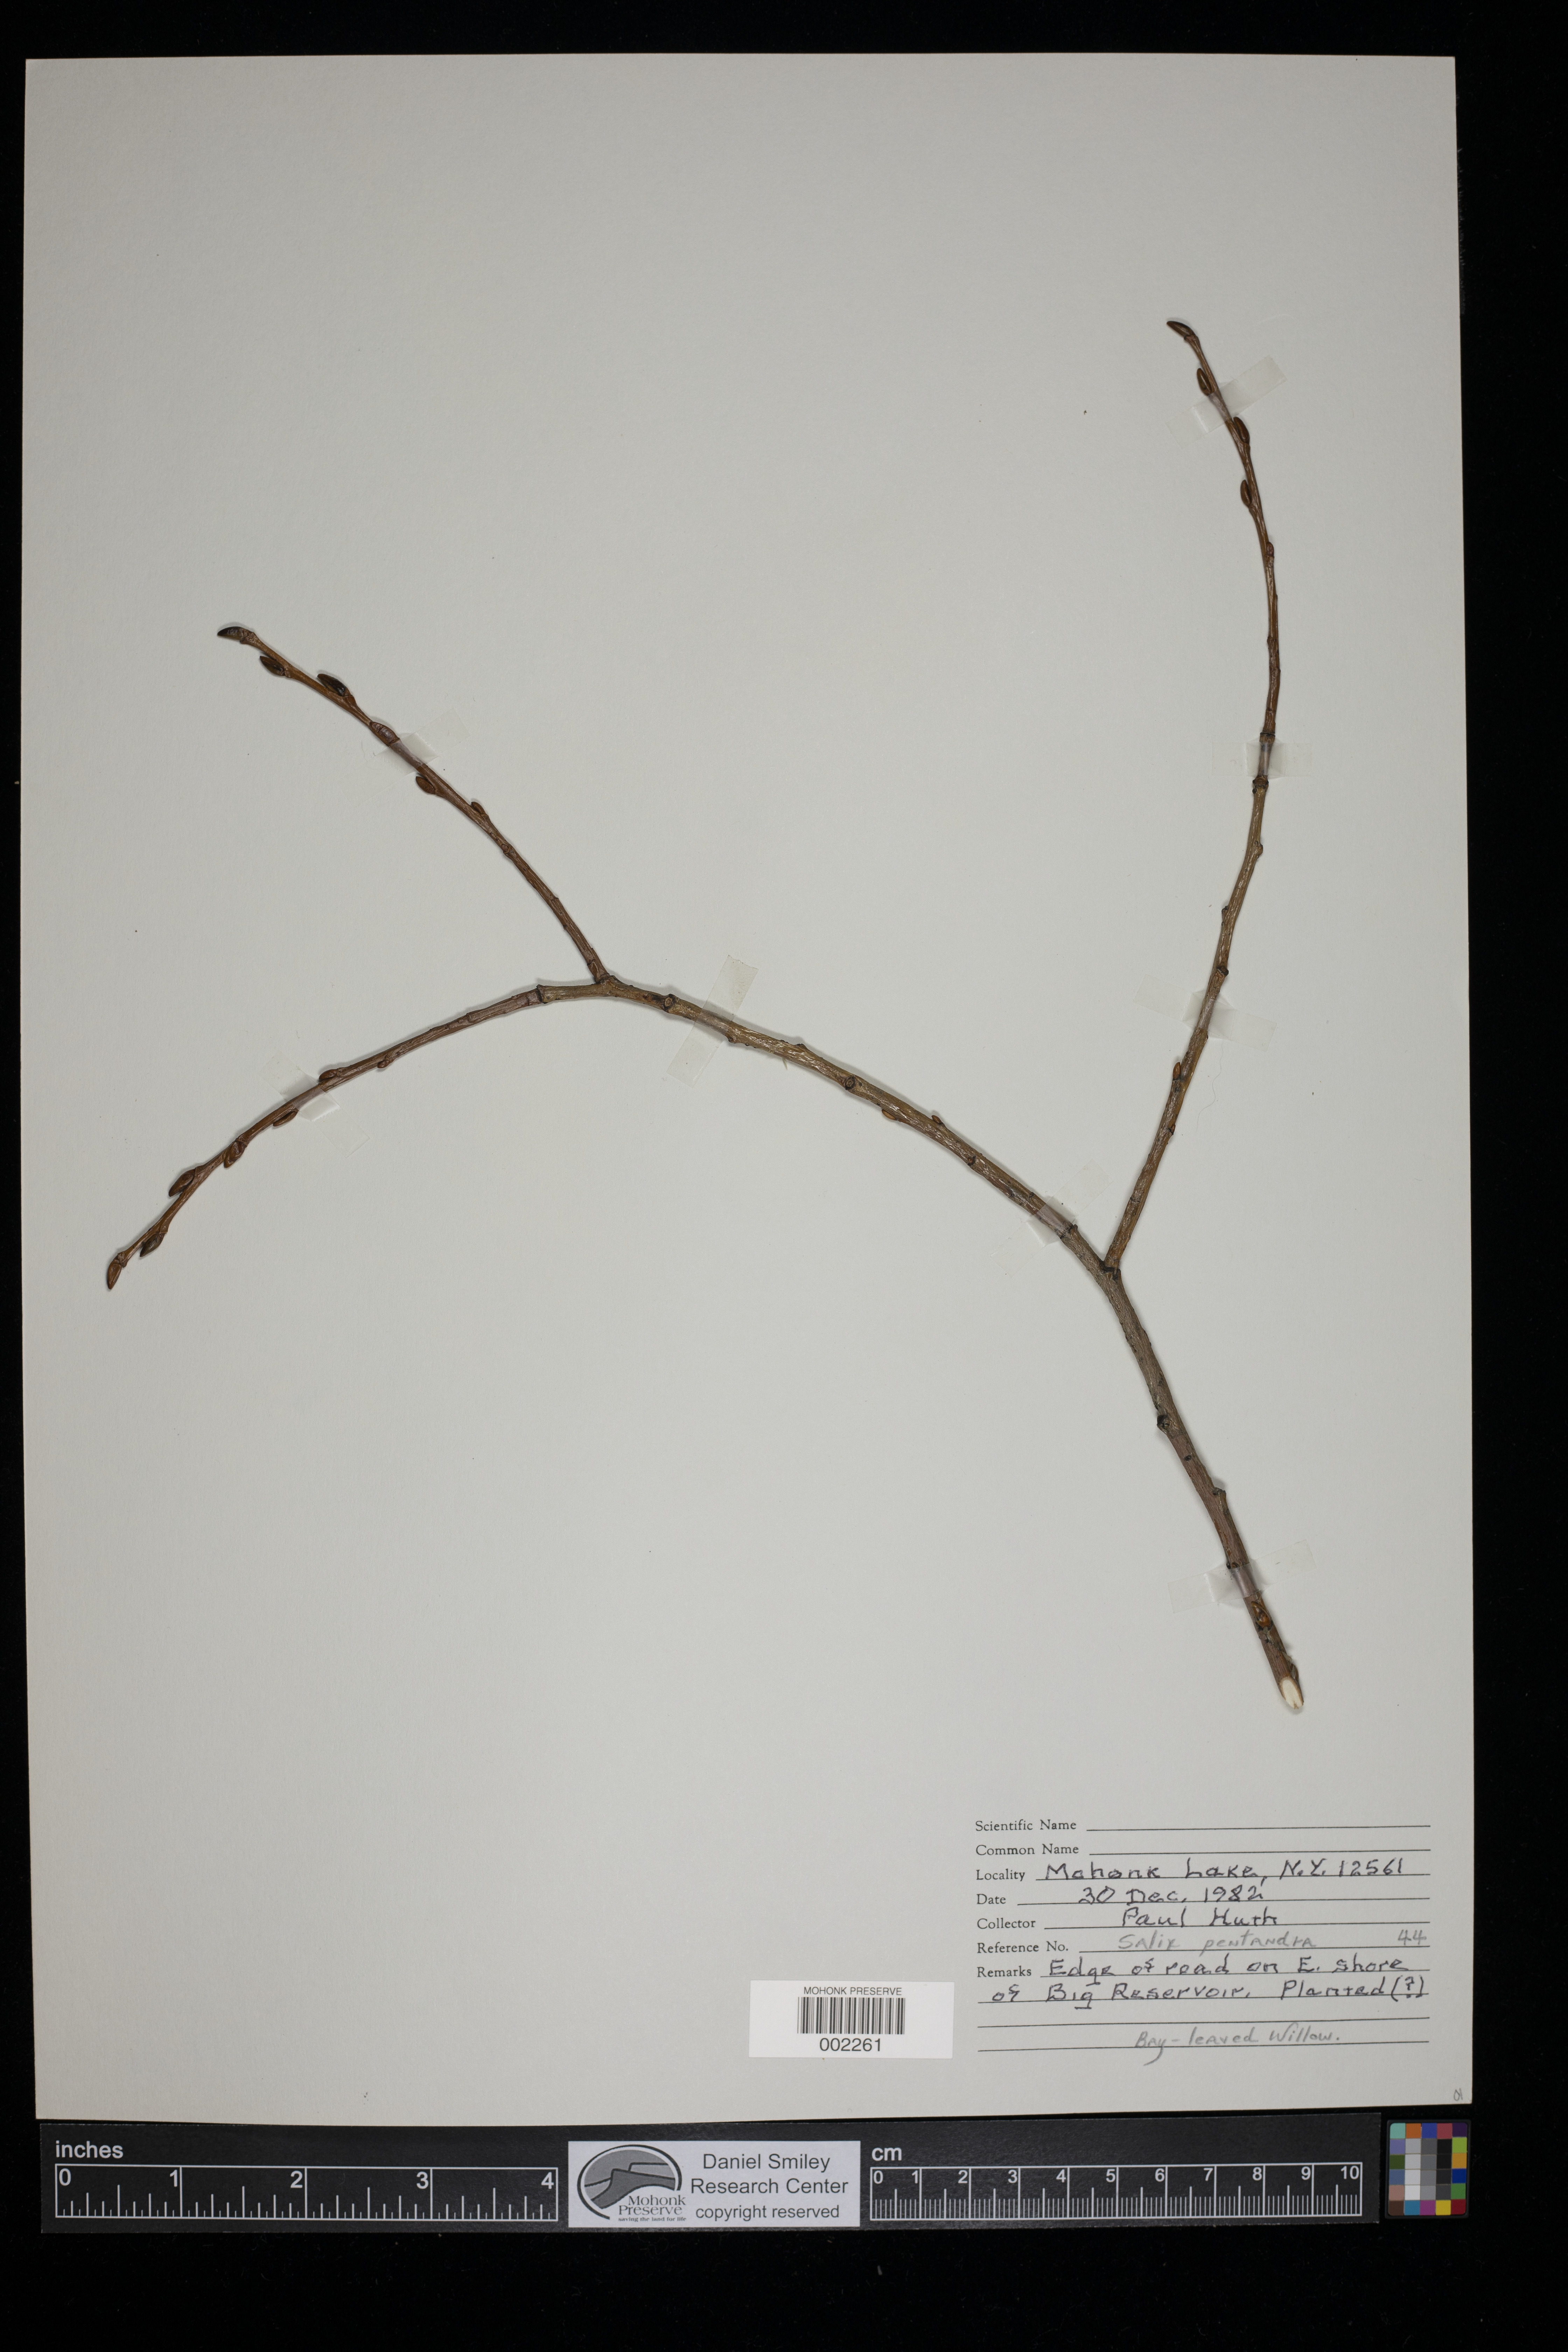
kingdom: Plantae
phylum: Tracheophyta
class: Magnoliopsida
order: Malpighiales
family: Salicaceae
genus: Salix
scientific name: Salix pentandra
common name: Bay willow
